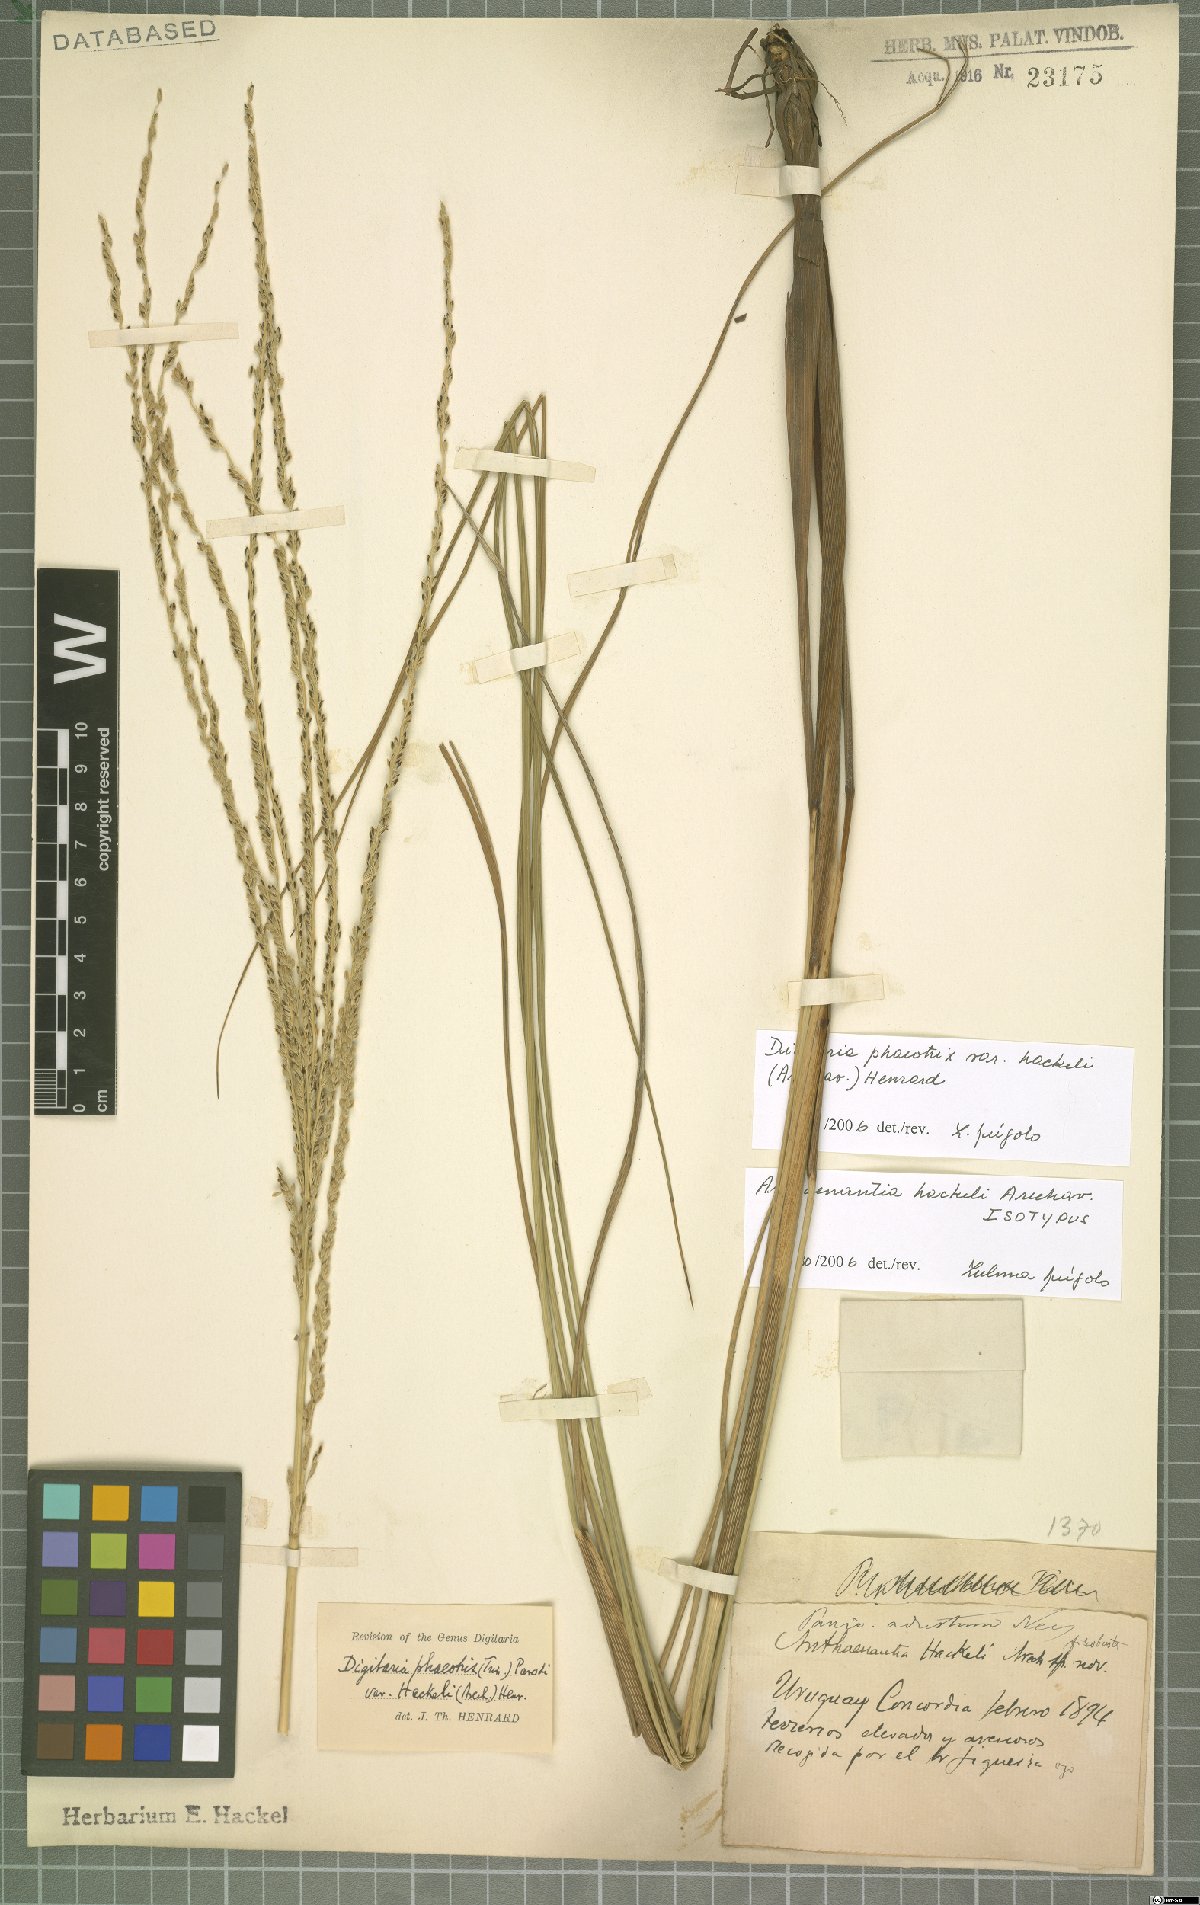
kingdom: Plantae
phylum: Tracheophyta
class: Liliopsida
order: Poales
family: Poaceae
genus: Digitaria
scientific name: Digitaria phaeothrix
